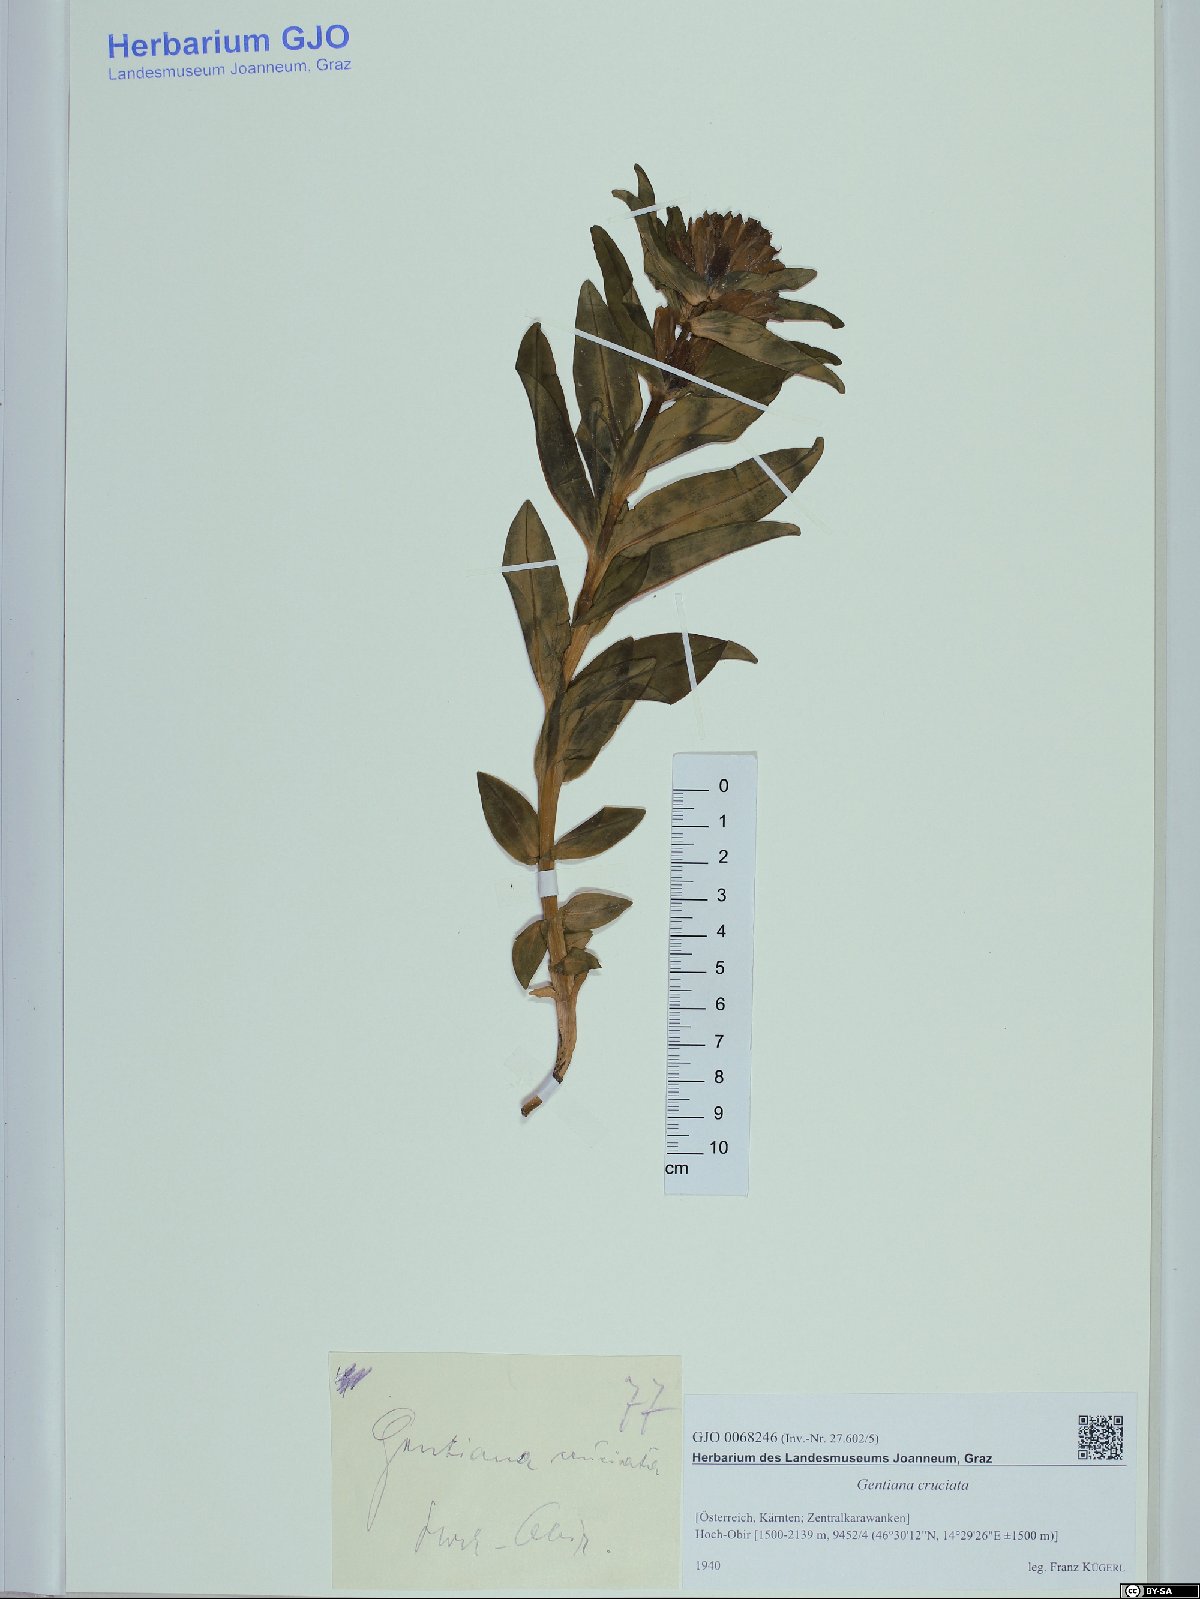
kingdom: Plantae
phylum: Tracheophyta
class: Magnoliopsida
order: Gentianales
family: Gentianaceae
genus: Gentiana
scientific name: Gentiana cruciata
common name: Cross gentian
